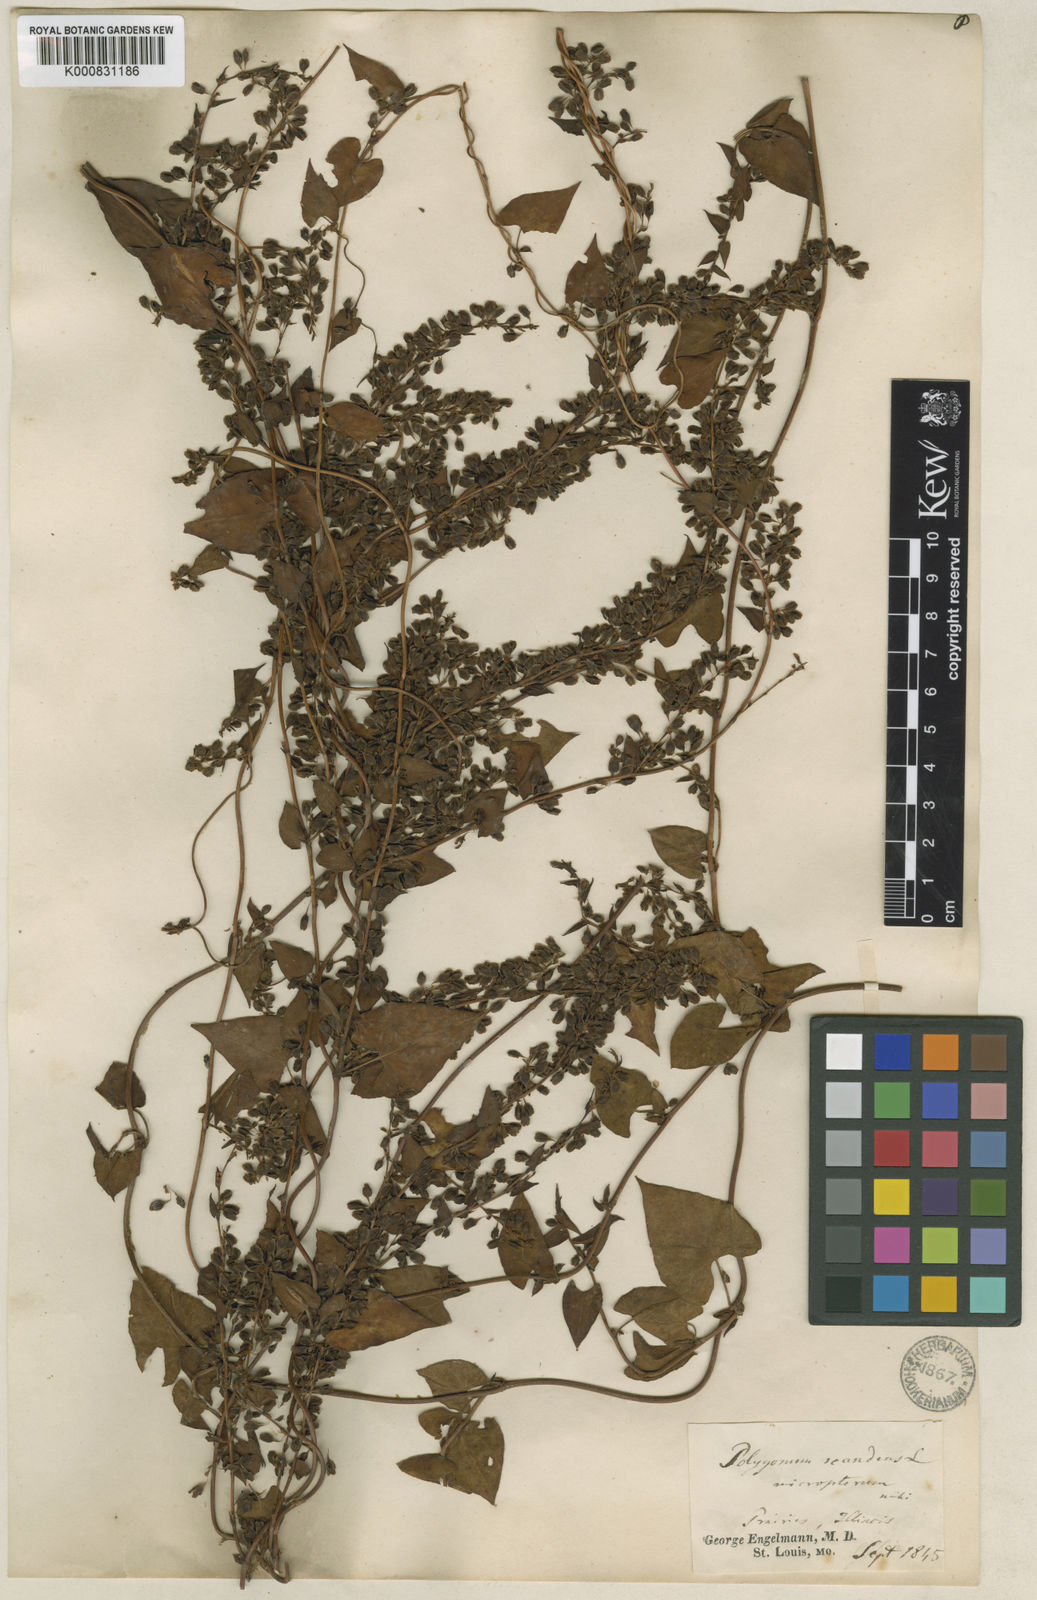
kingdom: Plantae
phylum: Tracheophyta
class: Magnoliopsida
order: Caryophyllales
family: Polygonaceae
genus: Fallopia
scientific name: Fallopia scandens
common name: Climbing false buckwheat
